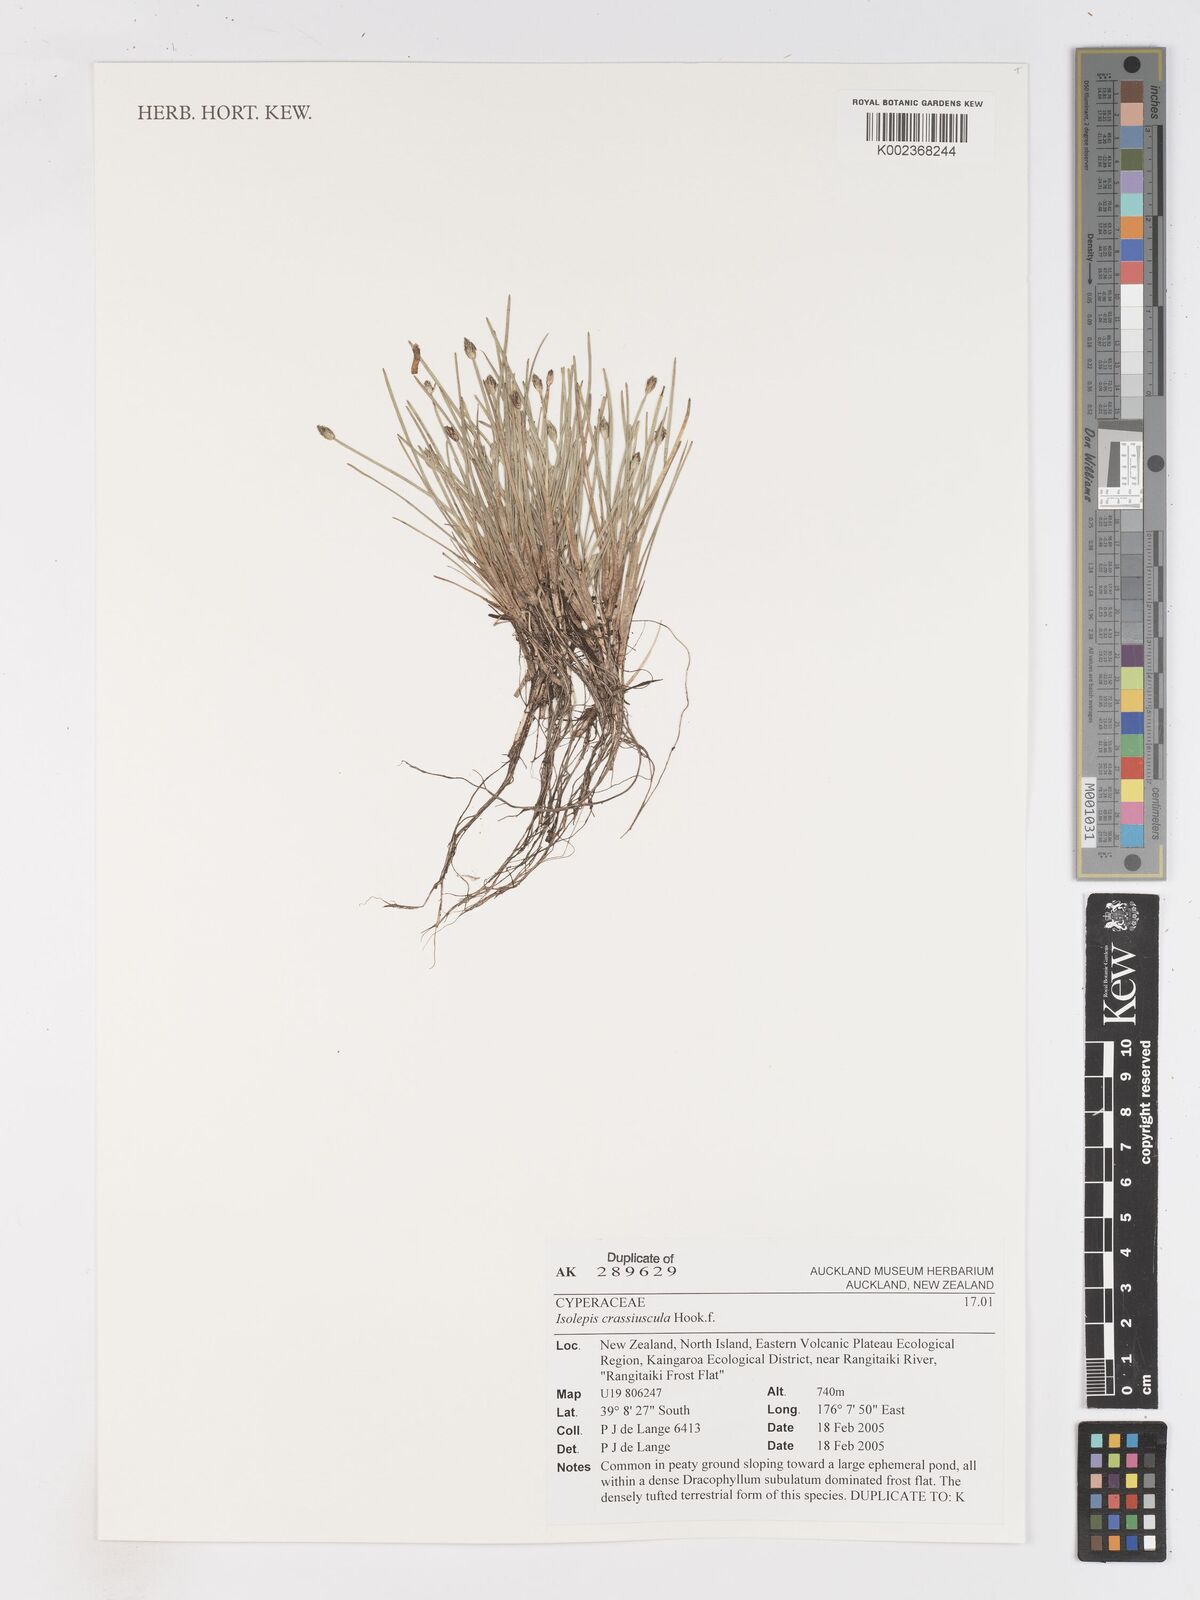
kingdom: Plantae
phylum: Tracheophyta
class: Liliopsida
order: Poales
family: Cyperaceae
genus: Isolepis
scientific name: Isolepis crassiuscula
